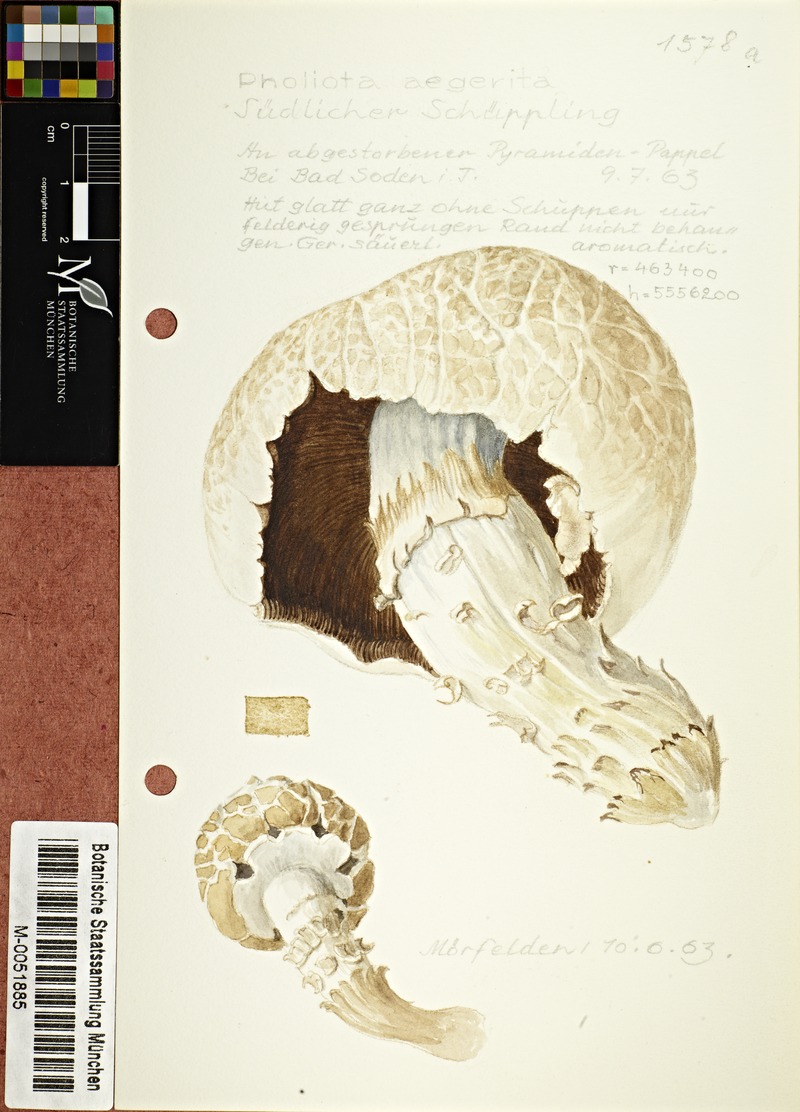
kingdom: Fungi
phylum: Basidiomycota
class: Agaricomycetes
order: Agaricales
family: Tubariaceae
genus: Cyclocybe
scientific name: Cyclocybe aegerita
